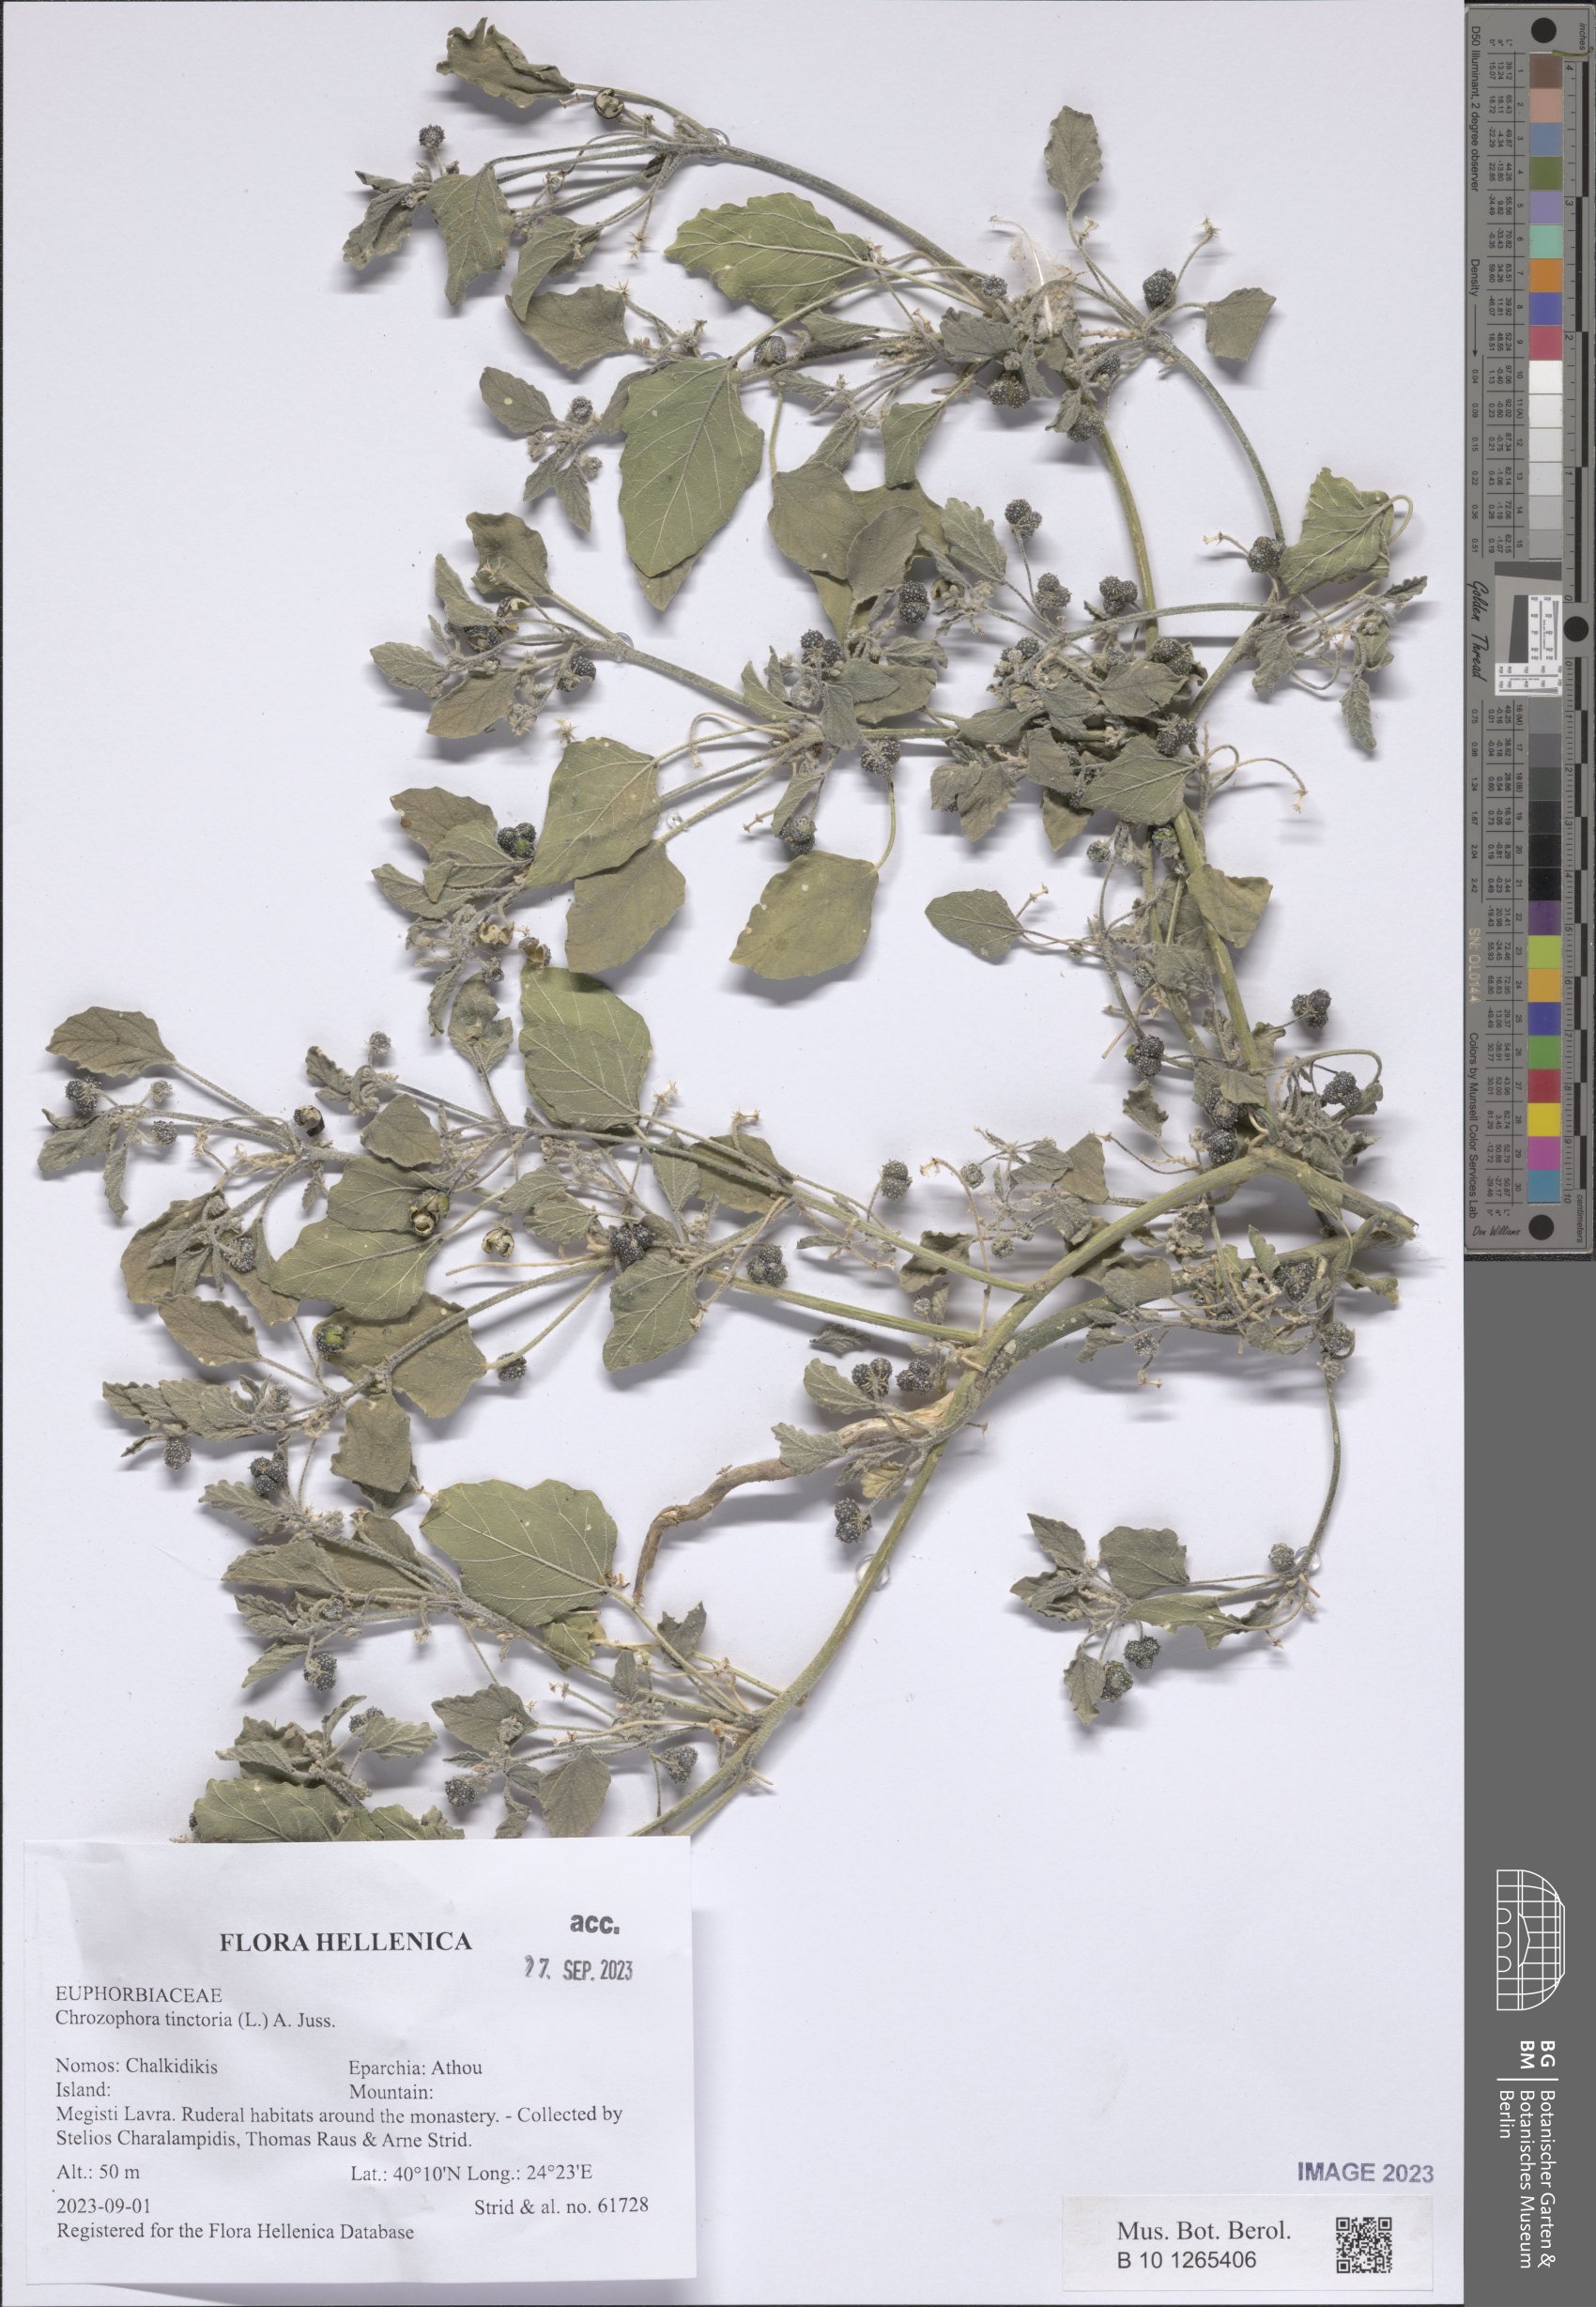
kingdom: Plantae
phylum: Tracheophyta
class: Magnoliopsida
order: Malpighiales
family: Euphorbiaceae
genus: Chrozophora
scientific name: Chrozophora tinctoria
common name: Dyer's litmus
